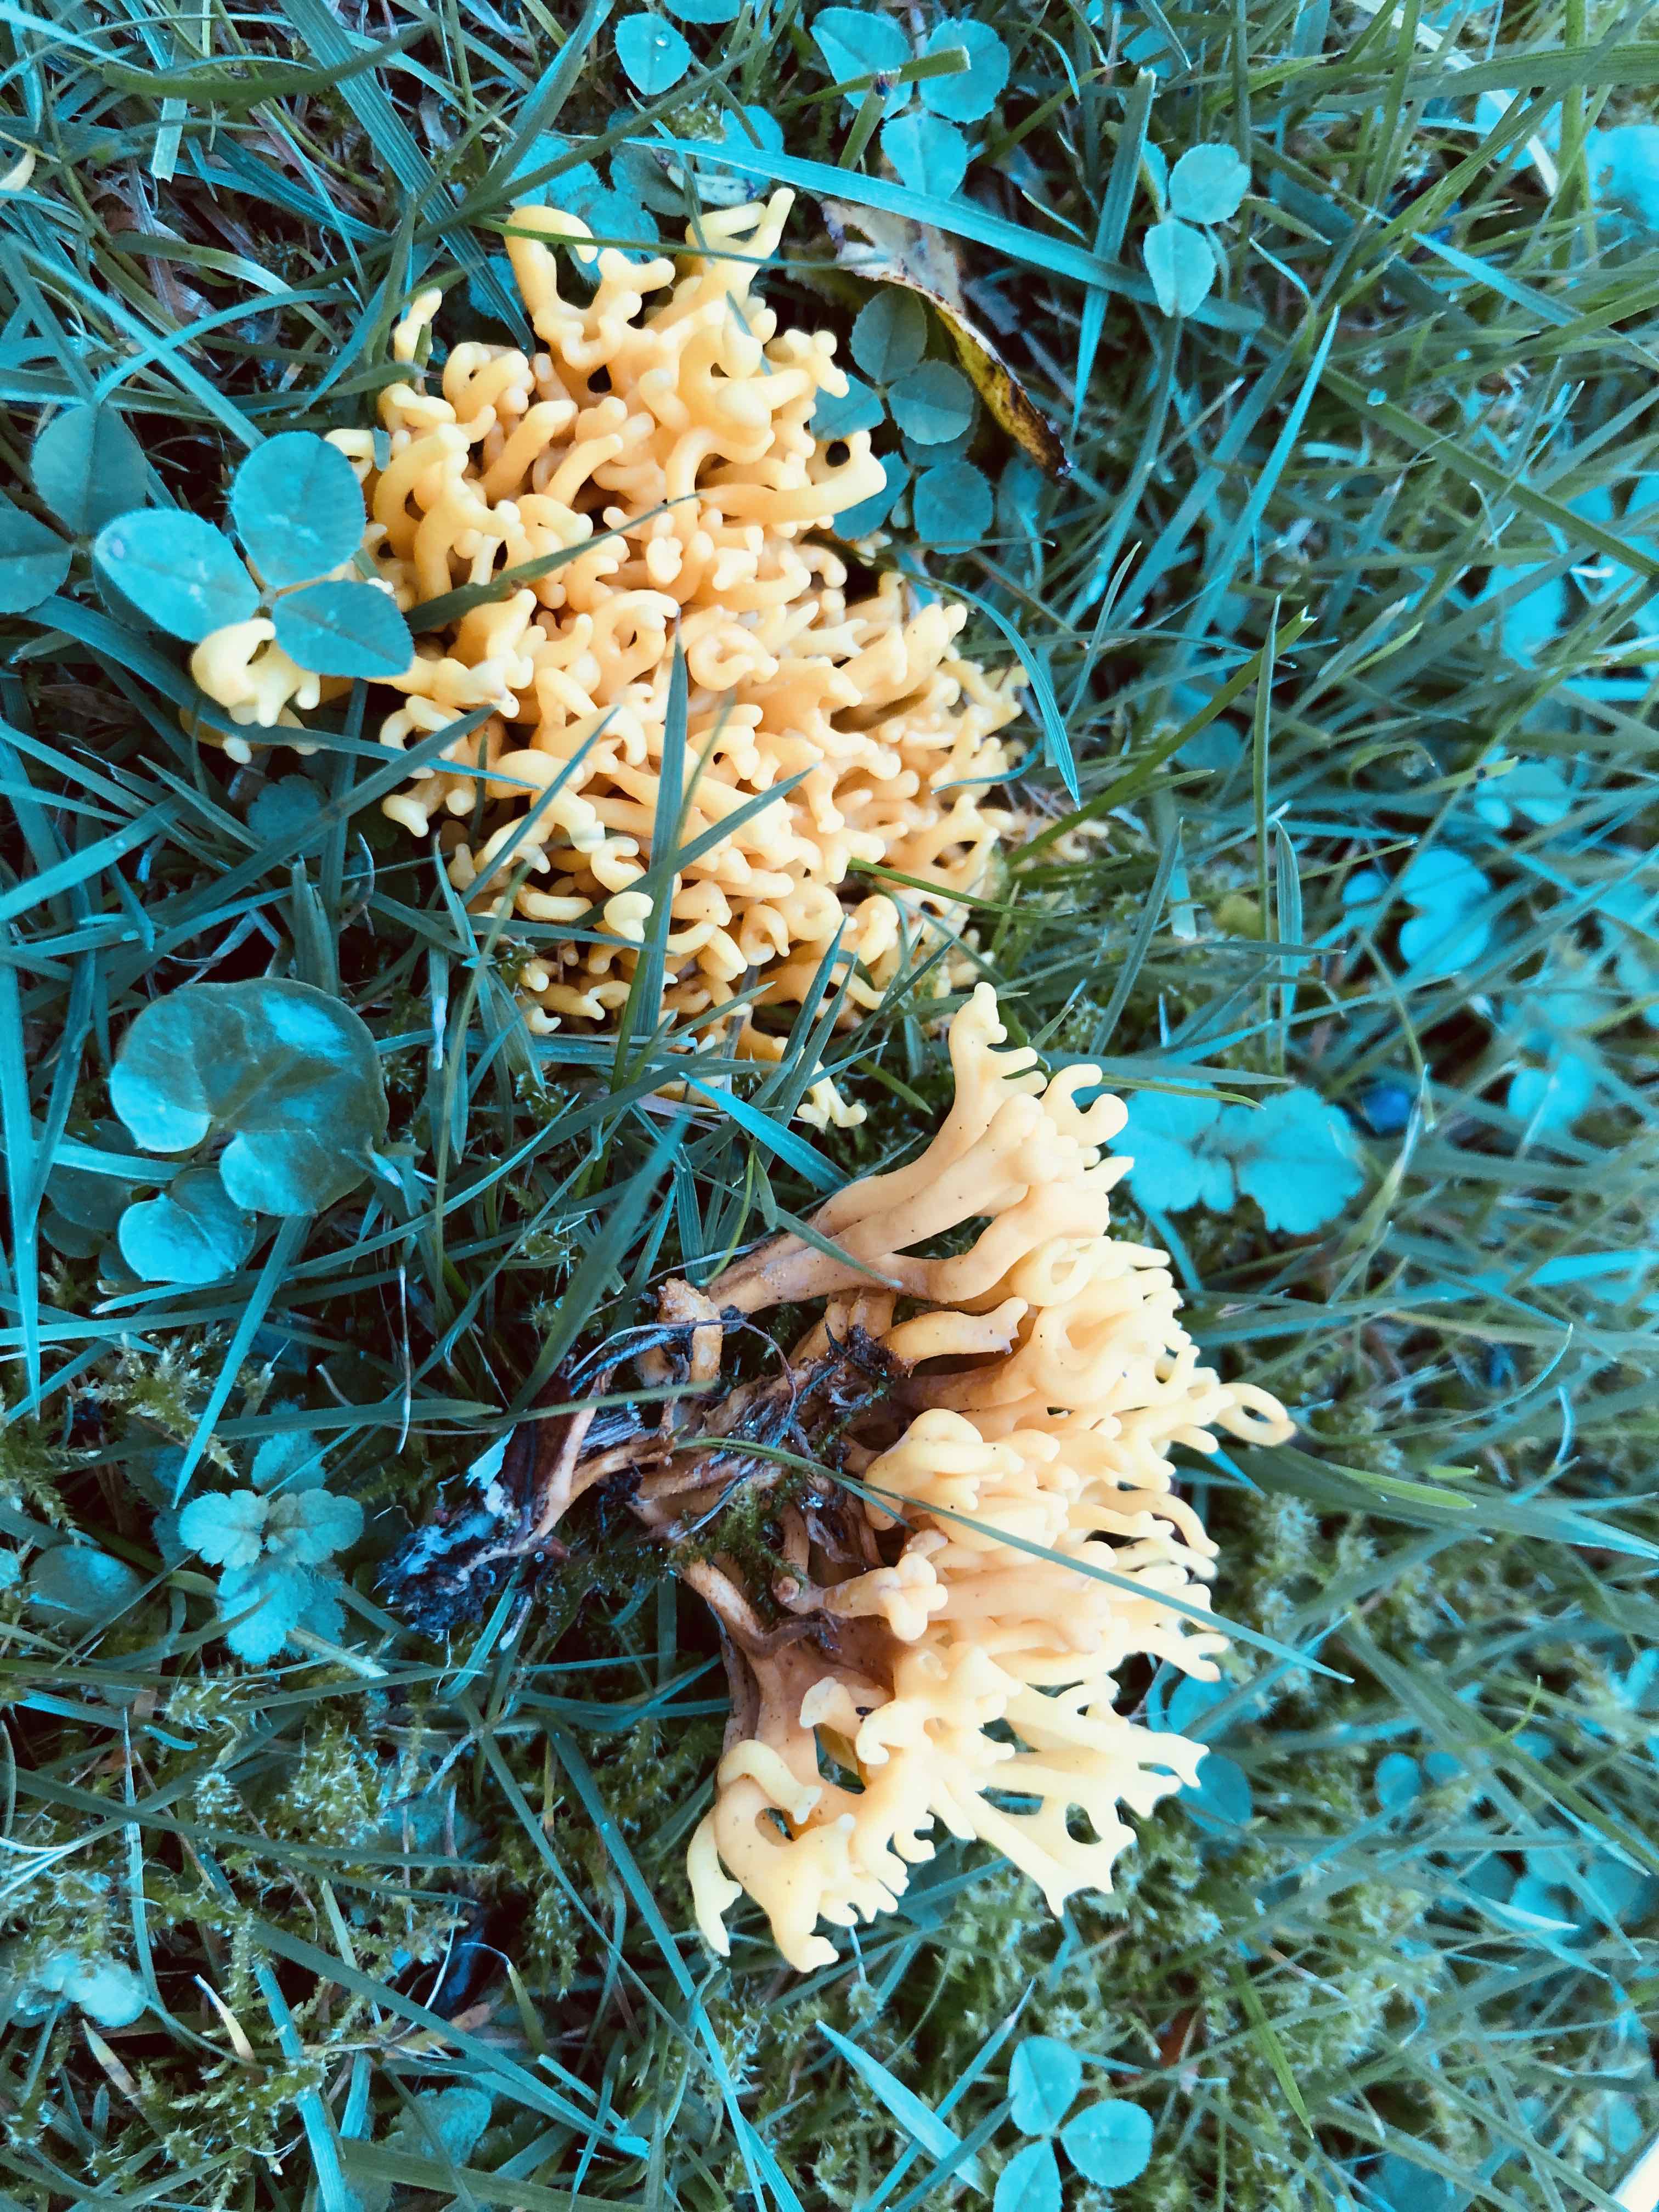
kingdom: Fungi
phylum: Basidiomycota
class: Agaricomycetes
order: Agaricales
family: Clavariaceae
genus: Clavulinopsis
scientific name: Clavulinopsis corniculata
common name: eng-køllesvamp
